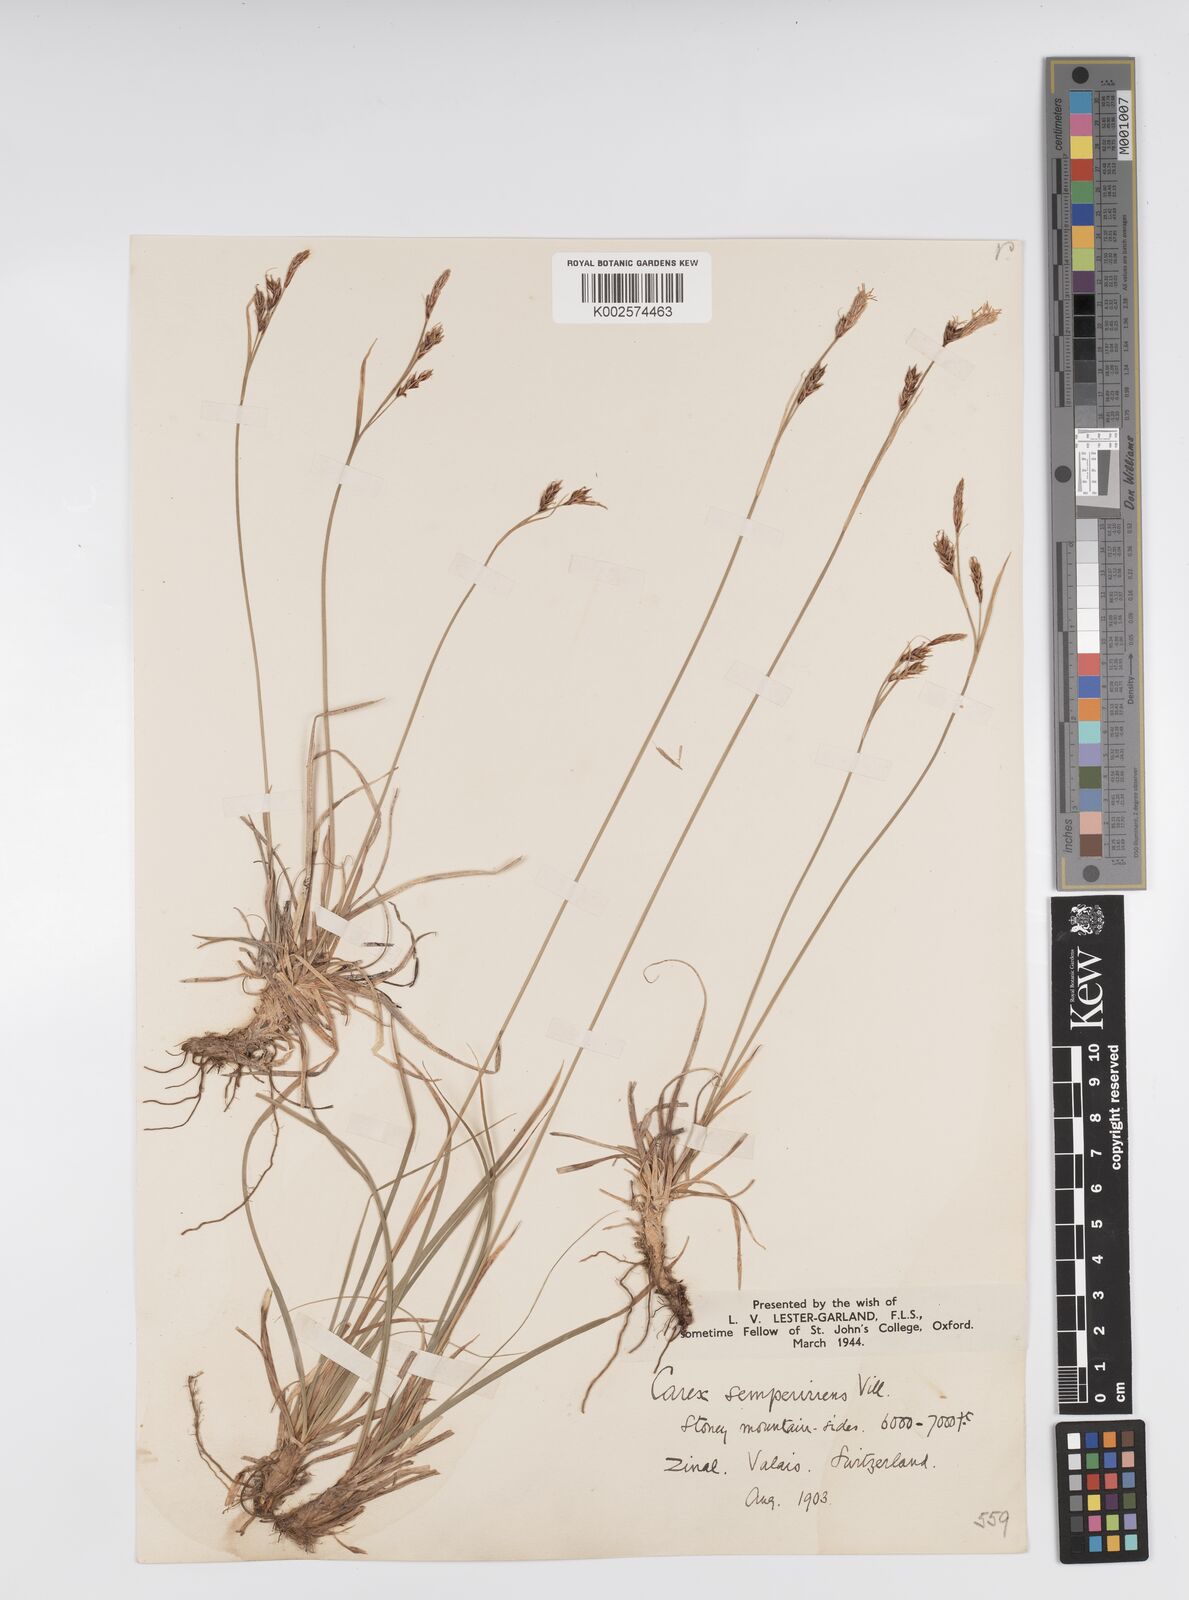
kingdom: Plantae
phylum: Tracheophyta
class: Liliopsida
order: Poales
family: Cyperaceae
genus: Carex
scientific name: Carex sempervirens
